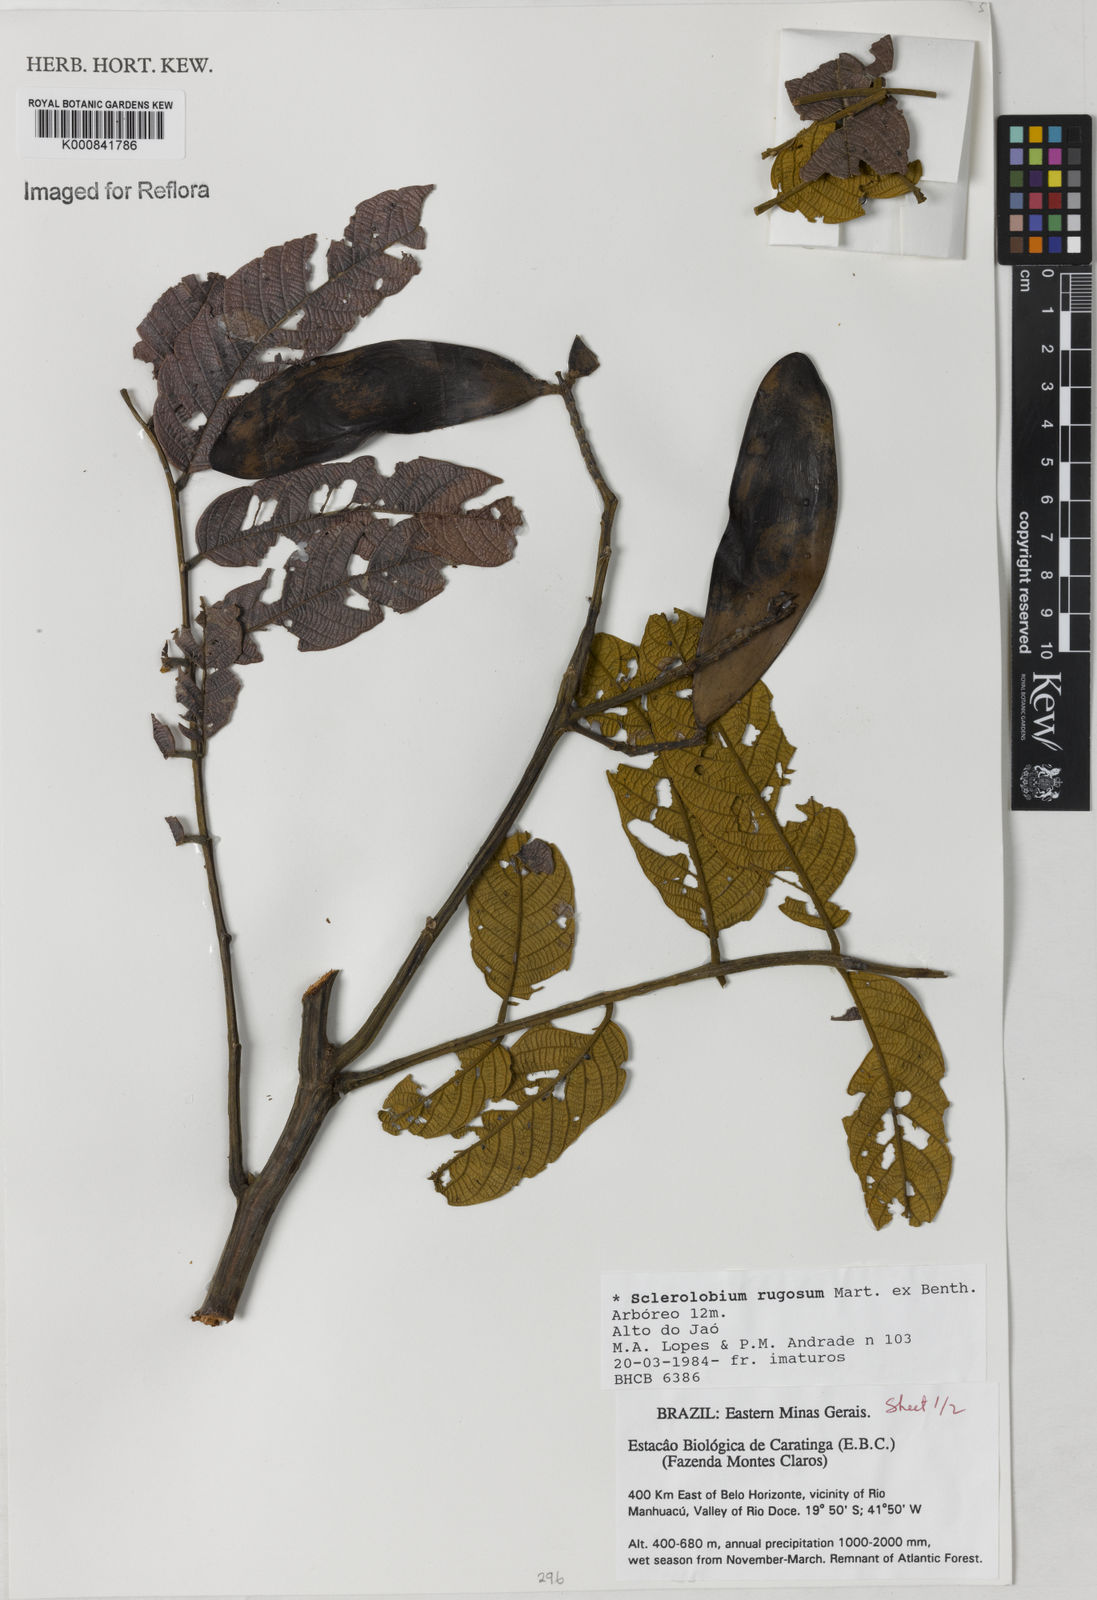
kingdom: Plantae
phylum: Tracheophyta
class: Magnoliopsida
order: Fabales
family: Fabaceae
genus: Tachigali
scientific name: Tachigali rugosa
